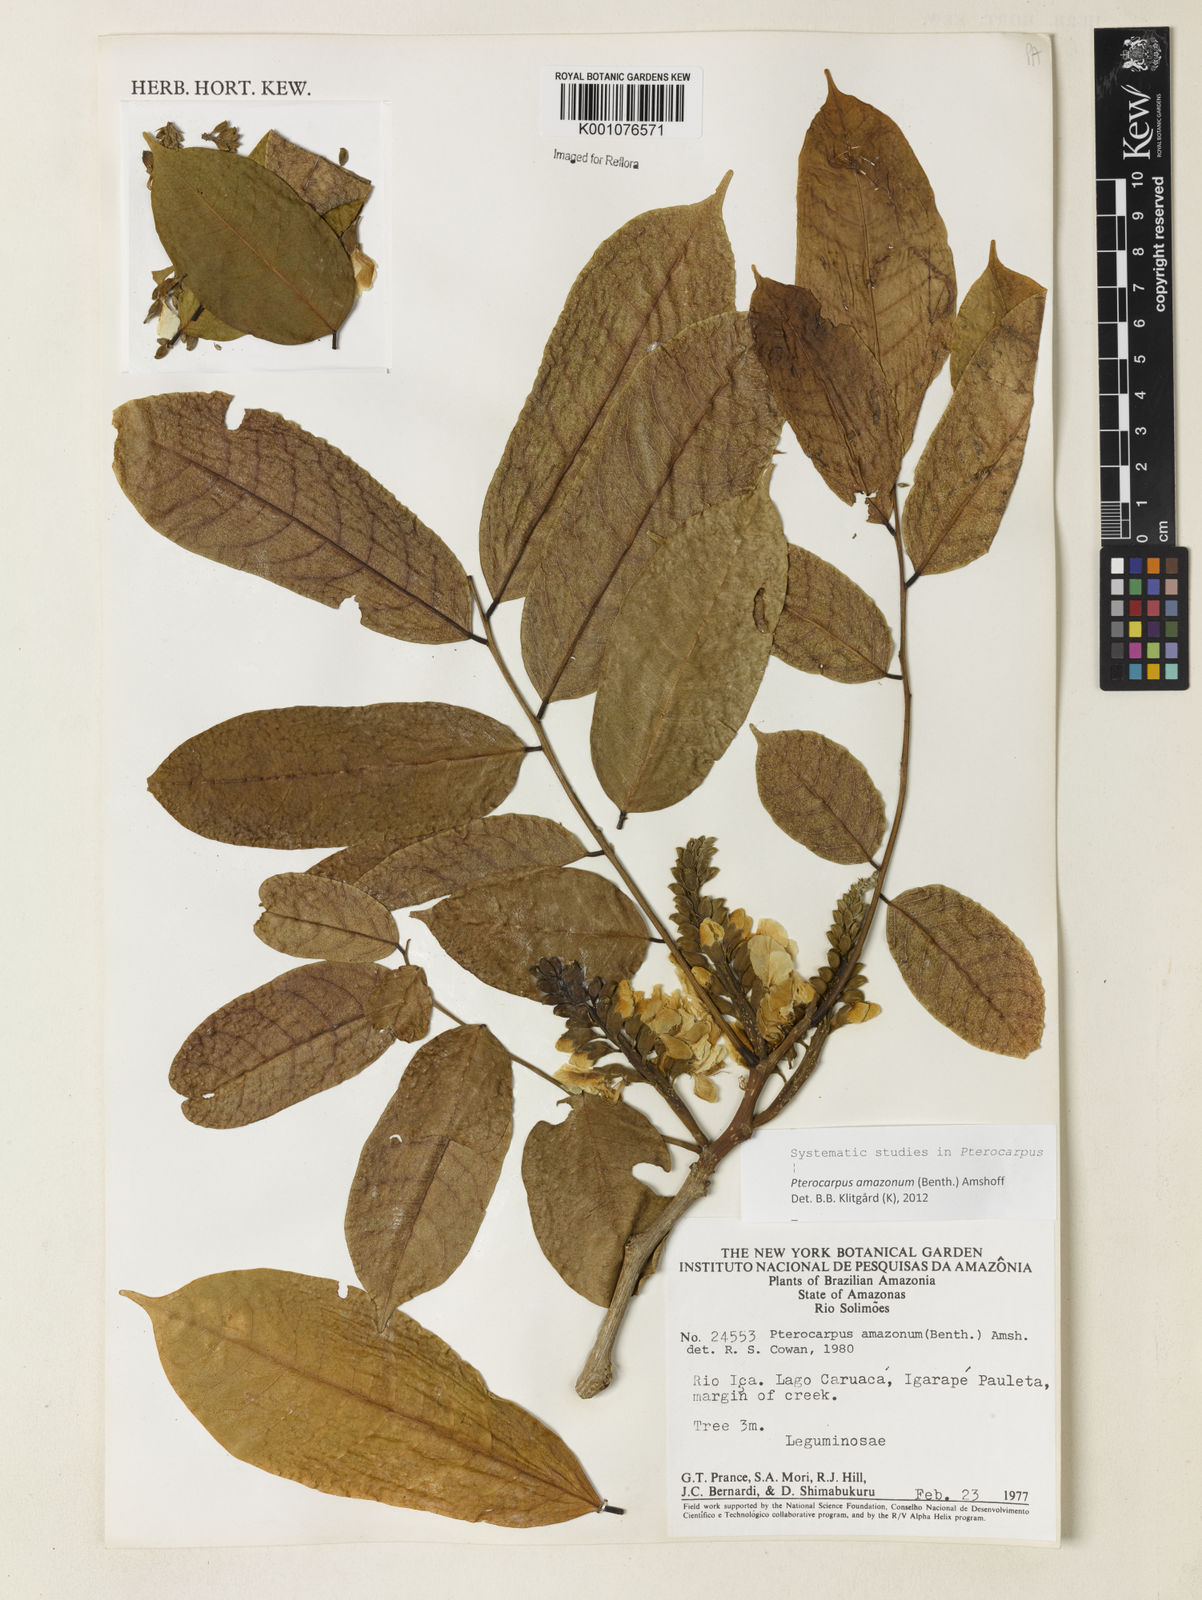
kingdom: Plantae
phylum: Tracheophyta
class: Magnoliopsida
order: Fabales
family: Fabaceae
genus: Pterocarpus
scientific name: Pterocarpus amazonum
